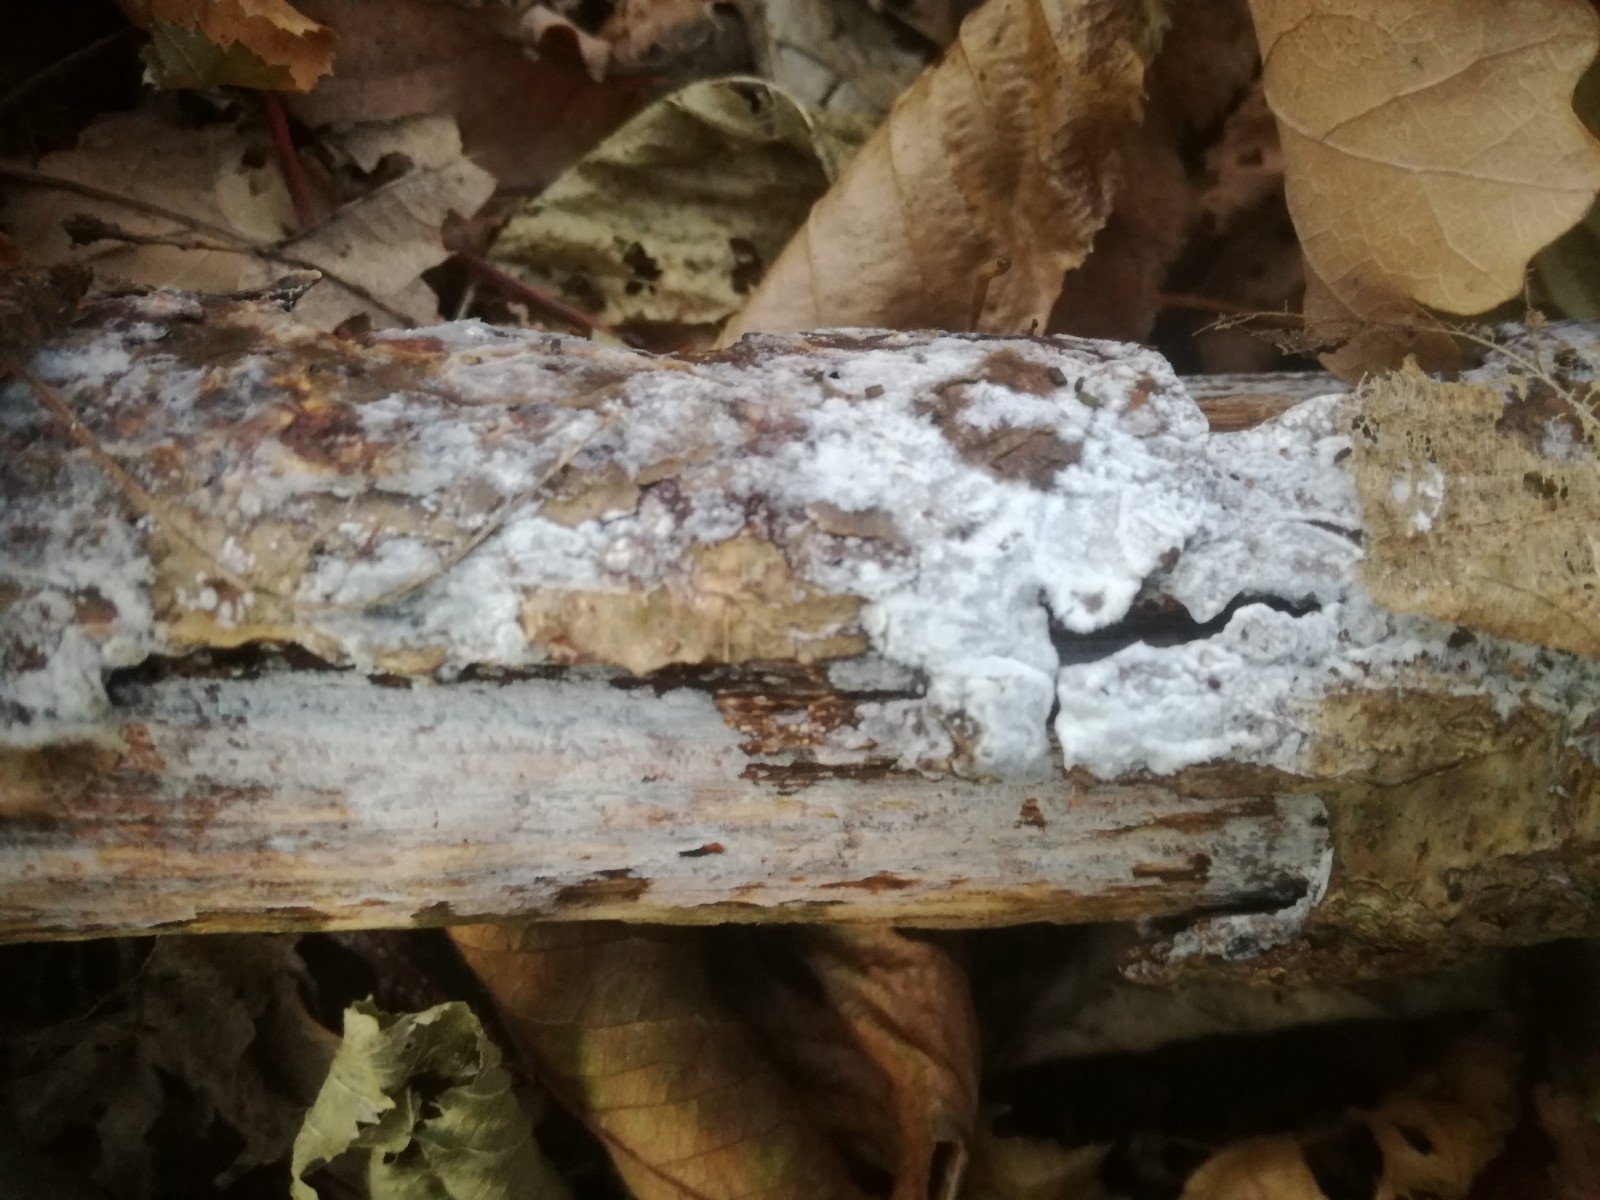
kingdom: Fungi
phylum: Basidiomycota
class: Agaricomycetes
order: Agaricales
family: Radulomycetaceae
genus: Radulomyces
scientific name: Radulomyces confluens
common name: glat naftalinskind
